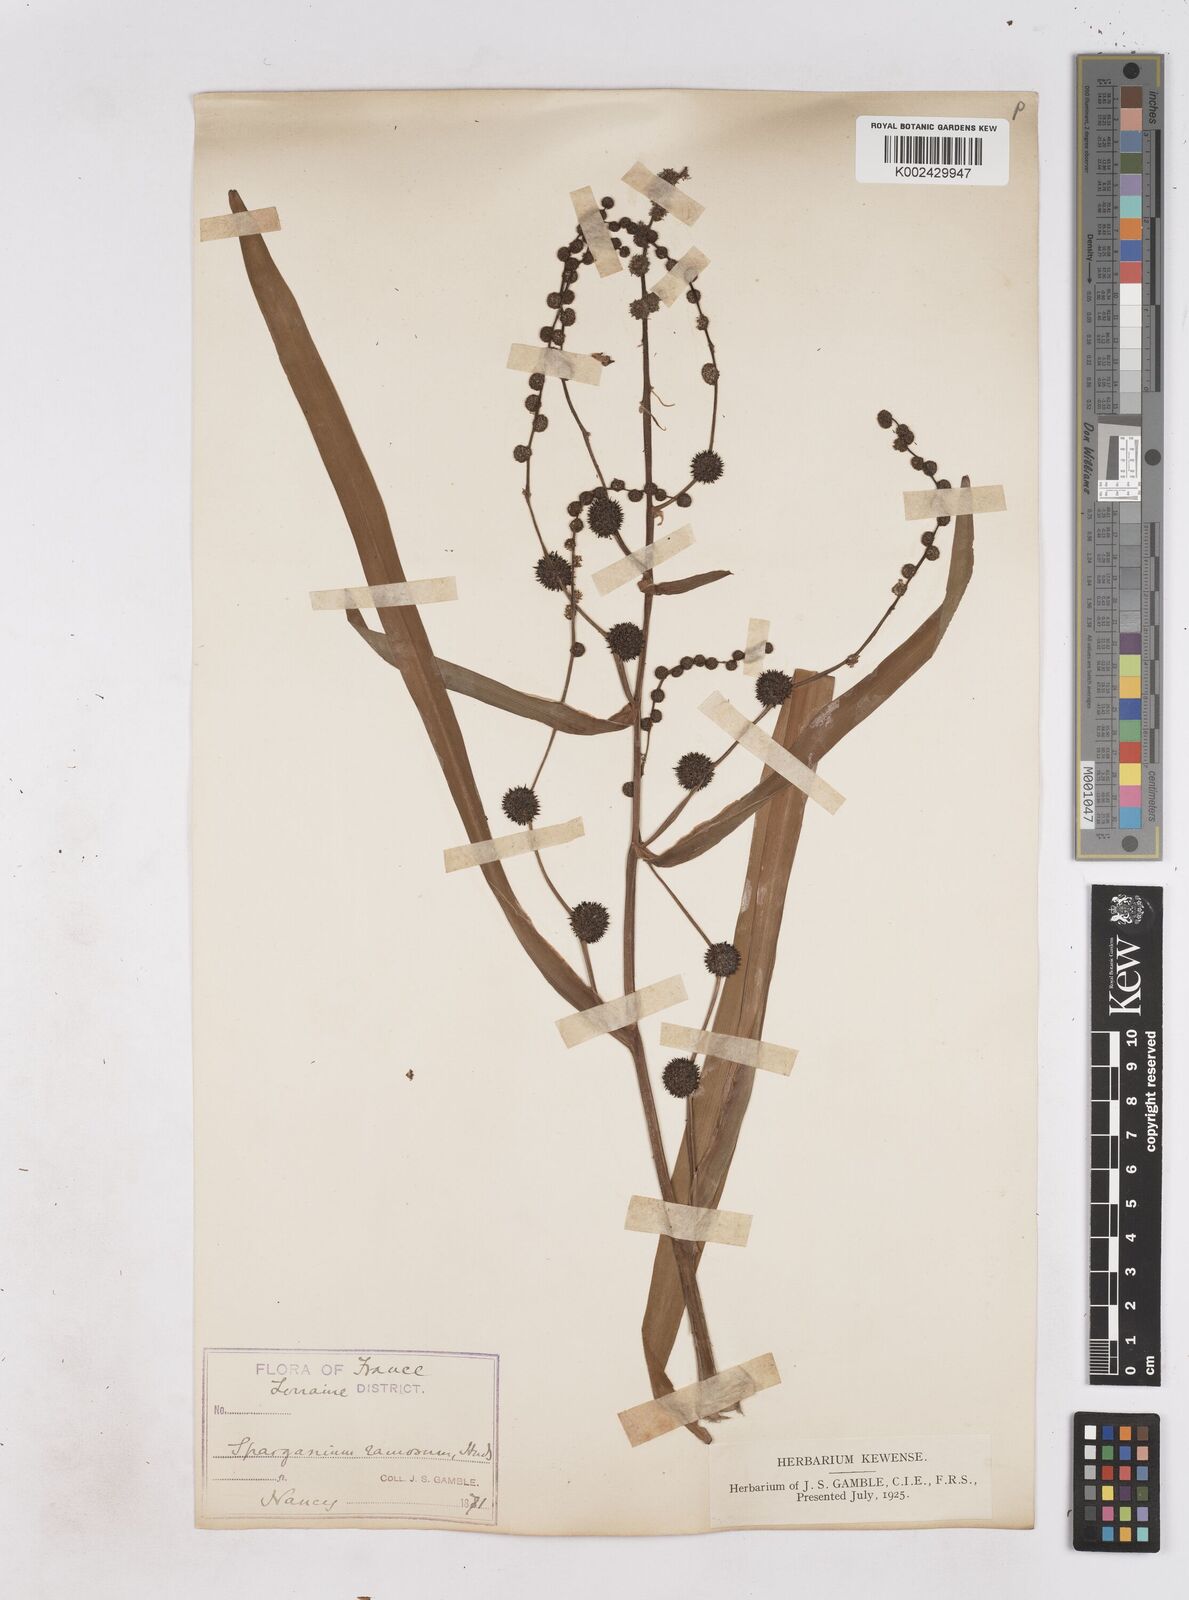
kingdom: Plantae
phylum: Tracheophyta
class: Liliopsida
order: Poales
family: Typhaceae
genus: Sparganium
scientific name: Sparganium erectum
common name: Branched bur-reed
